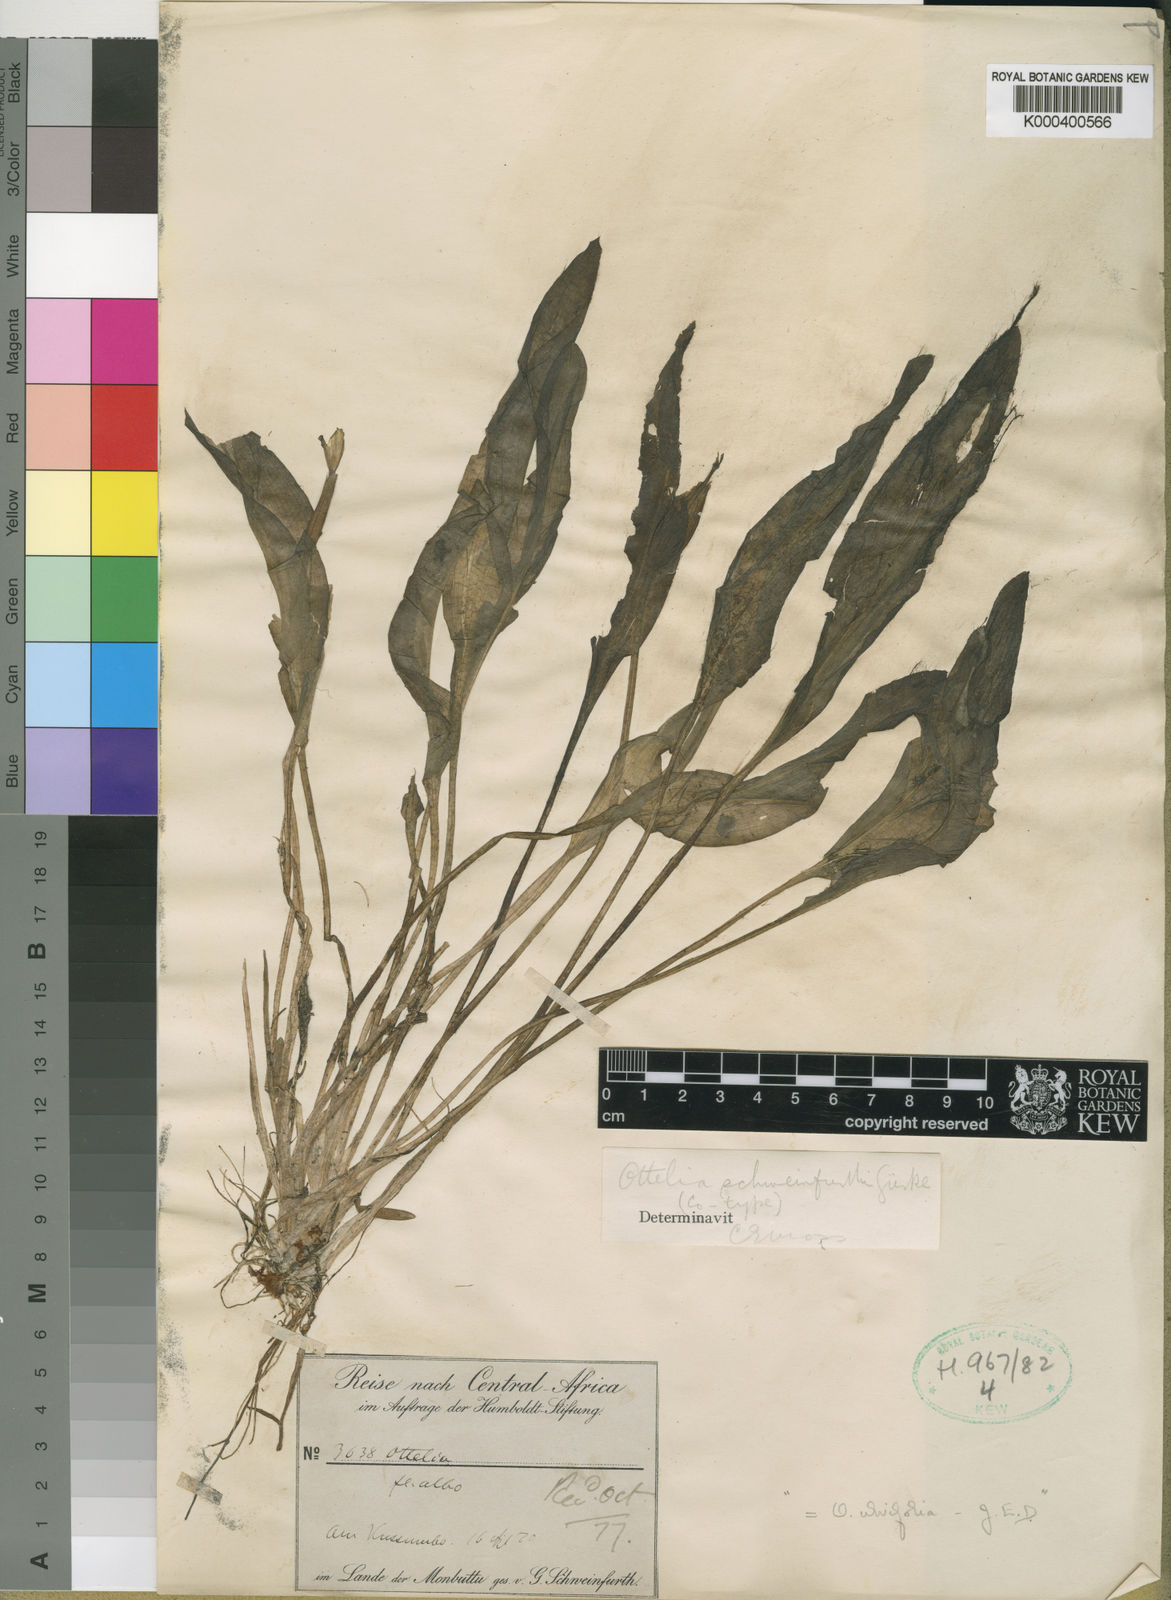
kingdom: Plantae
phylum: Tracheophyta
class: Liliopsida
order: Alismatales
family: Hydrocharitaceae
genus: Ottelia
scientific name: Ottelia ulvifolia
